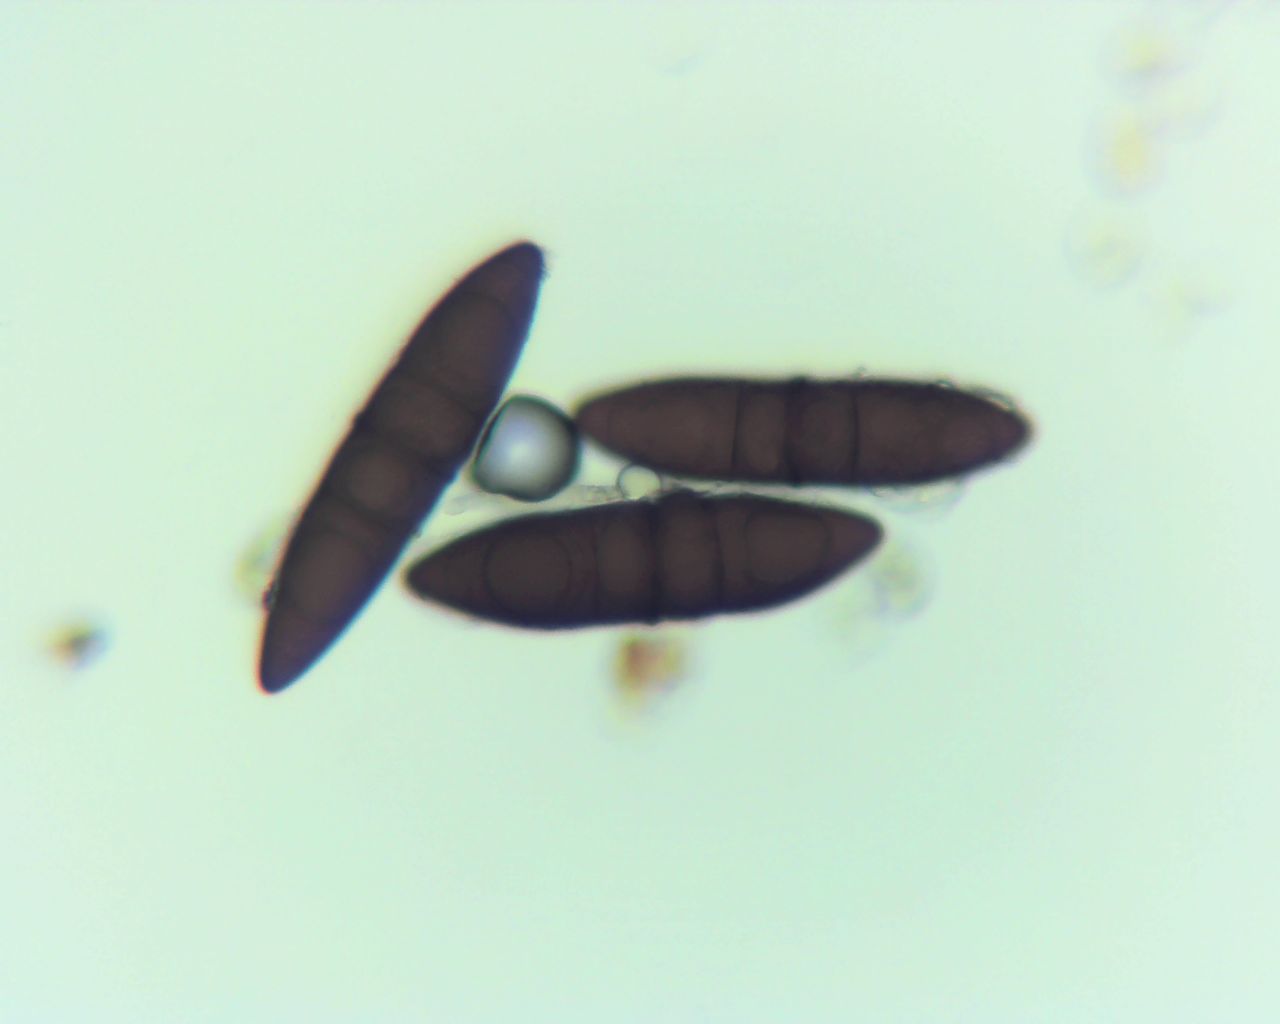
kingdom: Fungi
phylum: Ascomycota
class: Dothideomycetes
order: Pleosporales
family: Massariaceae
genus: Massaria
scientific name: Massaria inquinans
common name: ahorn-kulvulkan
